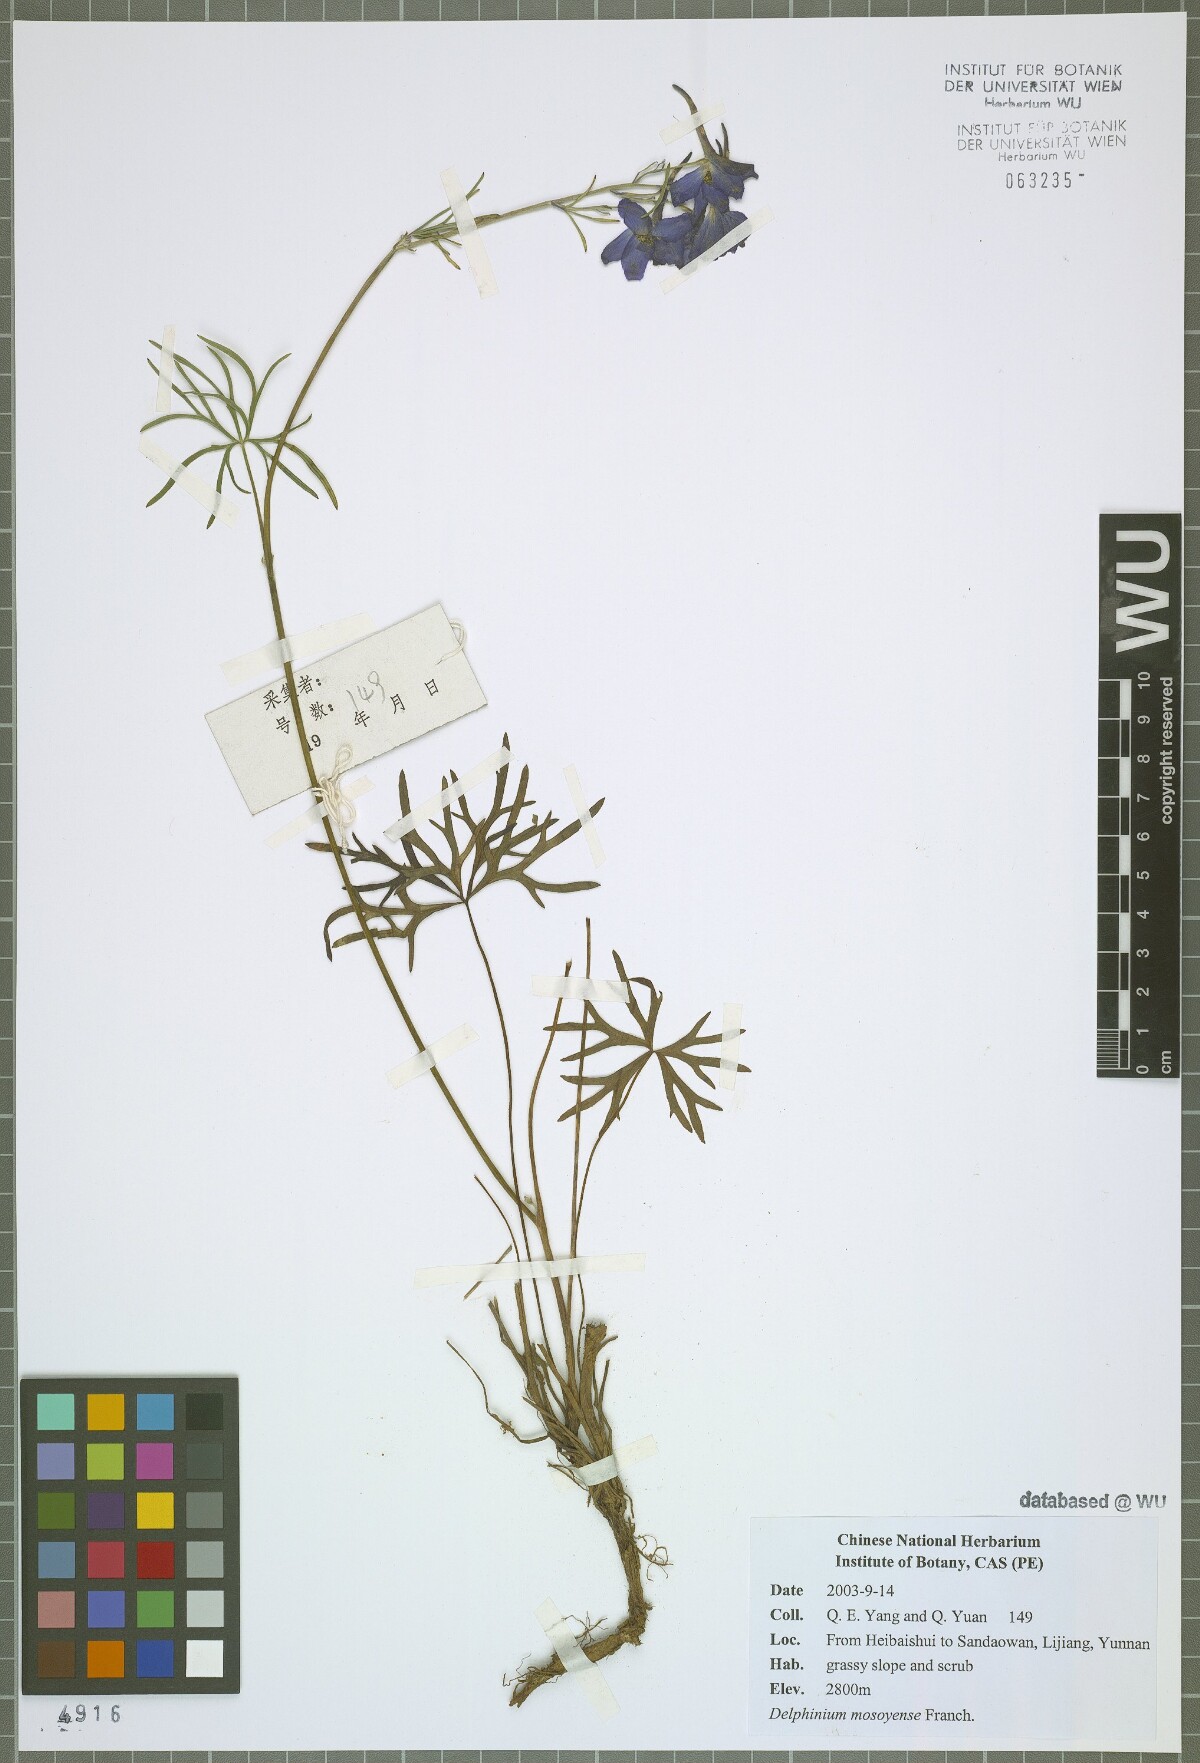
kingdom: Plantae
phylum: Tracheophyta
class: Magnoliopsida
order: Ranunculales
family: Ranunculaceae
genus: Delphinium
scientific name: Delphinium grandiflorum
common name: Siberian larkspur
